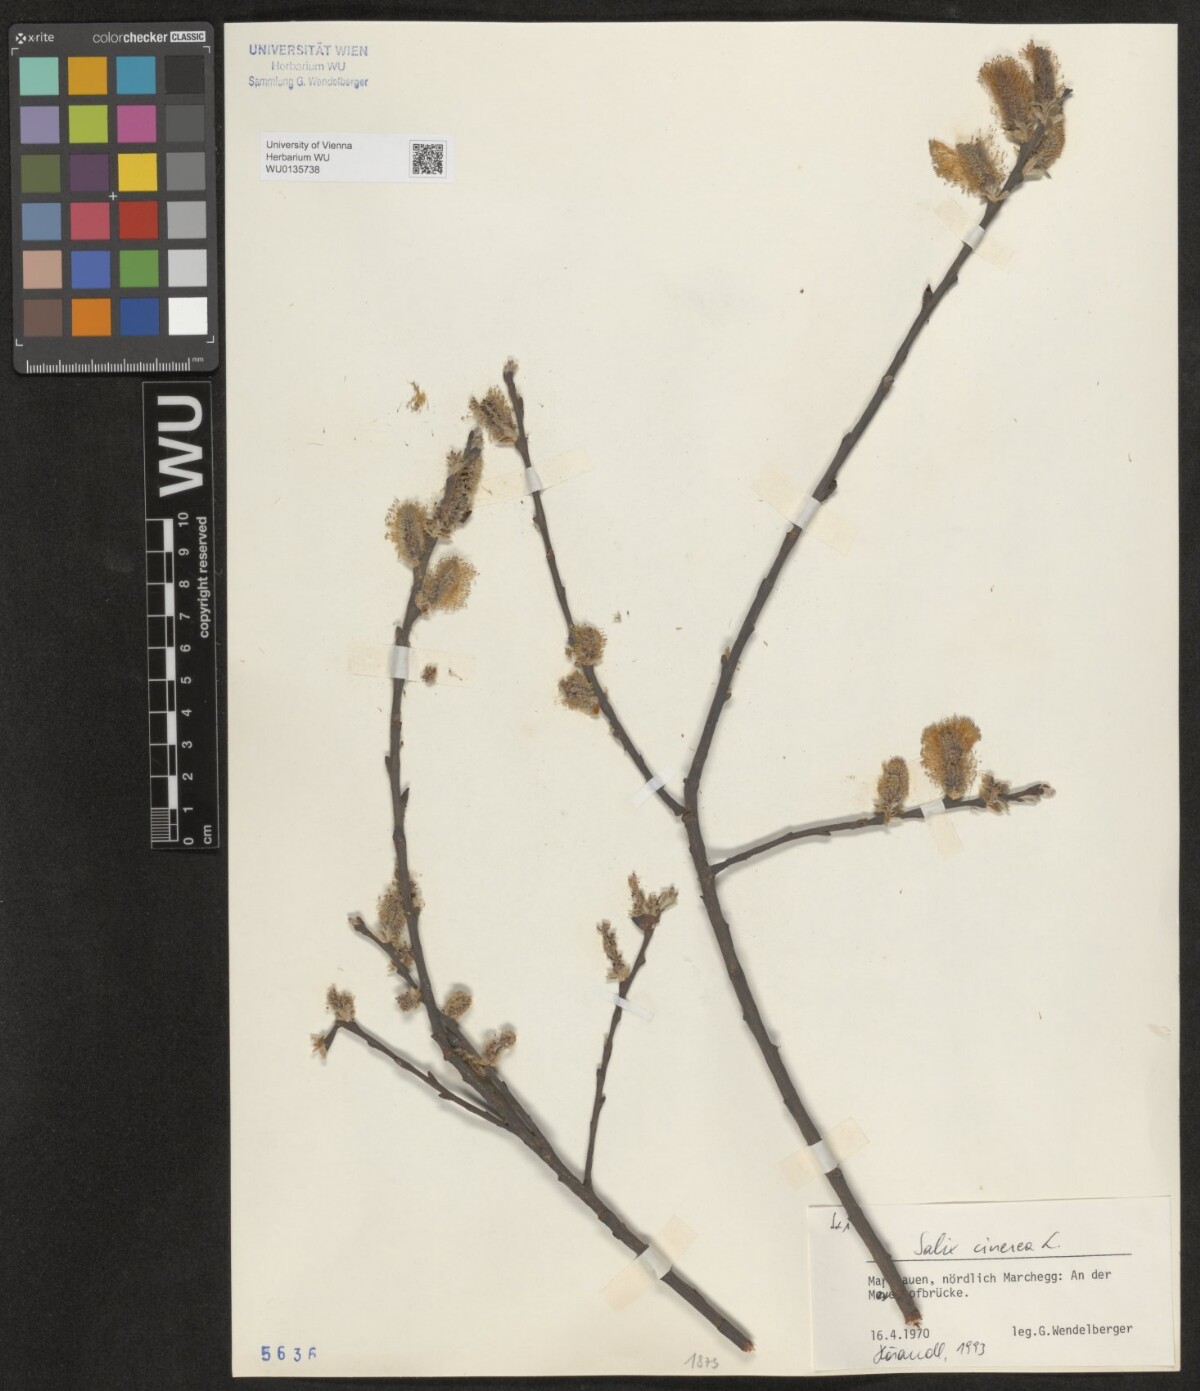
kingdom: Plantae
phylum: Tracheophyta
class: Magnoliopsida
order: Malpighiales
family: Salicaceae
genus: Salix
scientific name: Salix cinerea
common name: Common sallow
